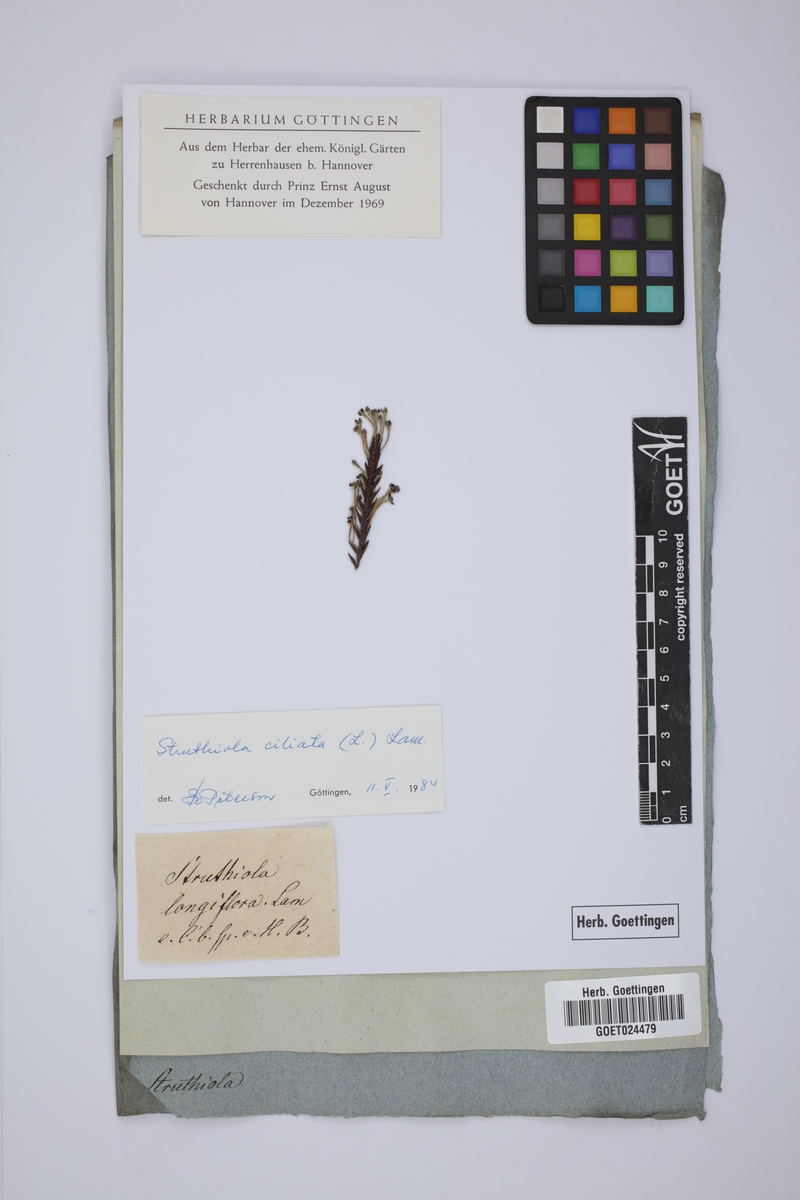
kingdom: Plantae
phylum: Tracheophyta
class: Magnoliopsida
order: Malvales
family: Thymelaeaceae
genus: Struthiola
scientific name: Struthiola ciliata
